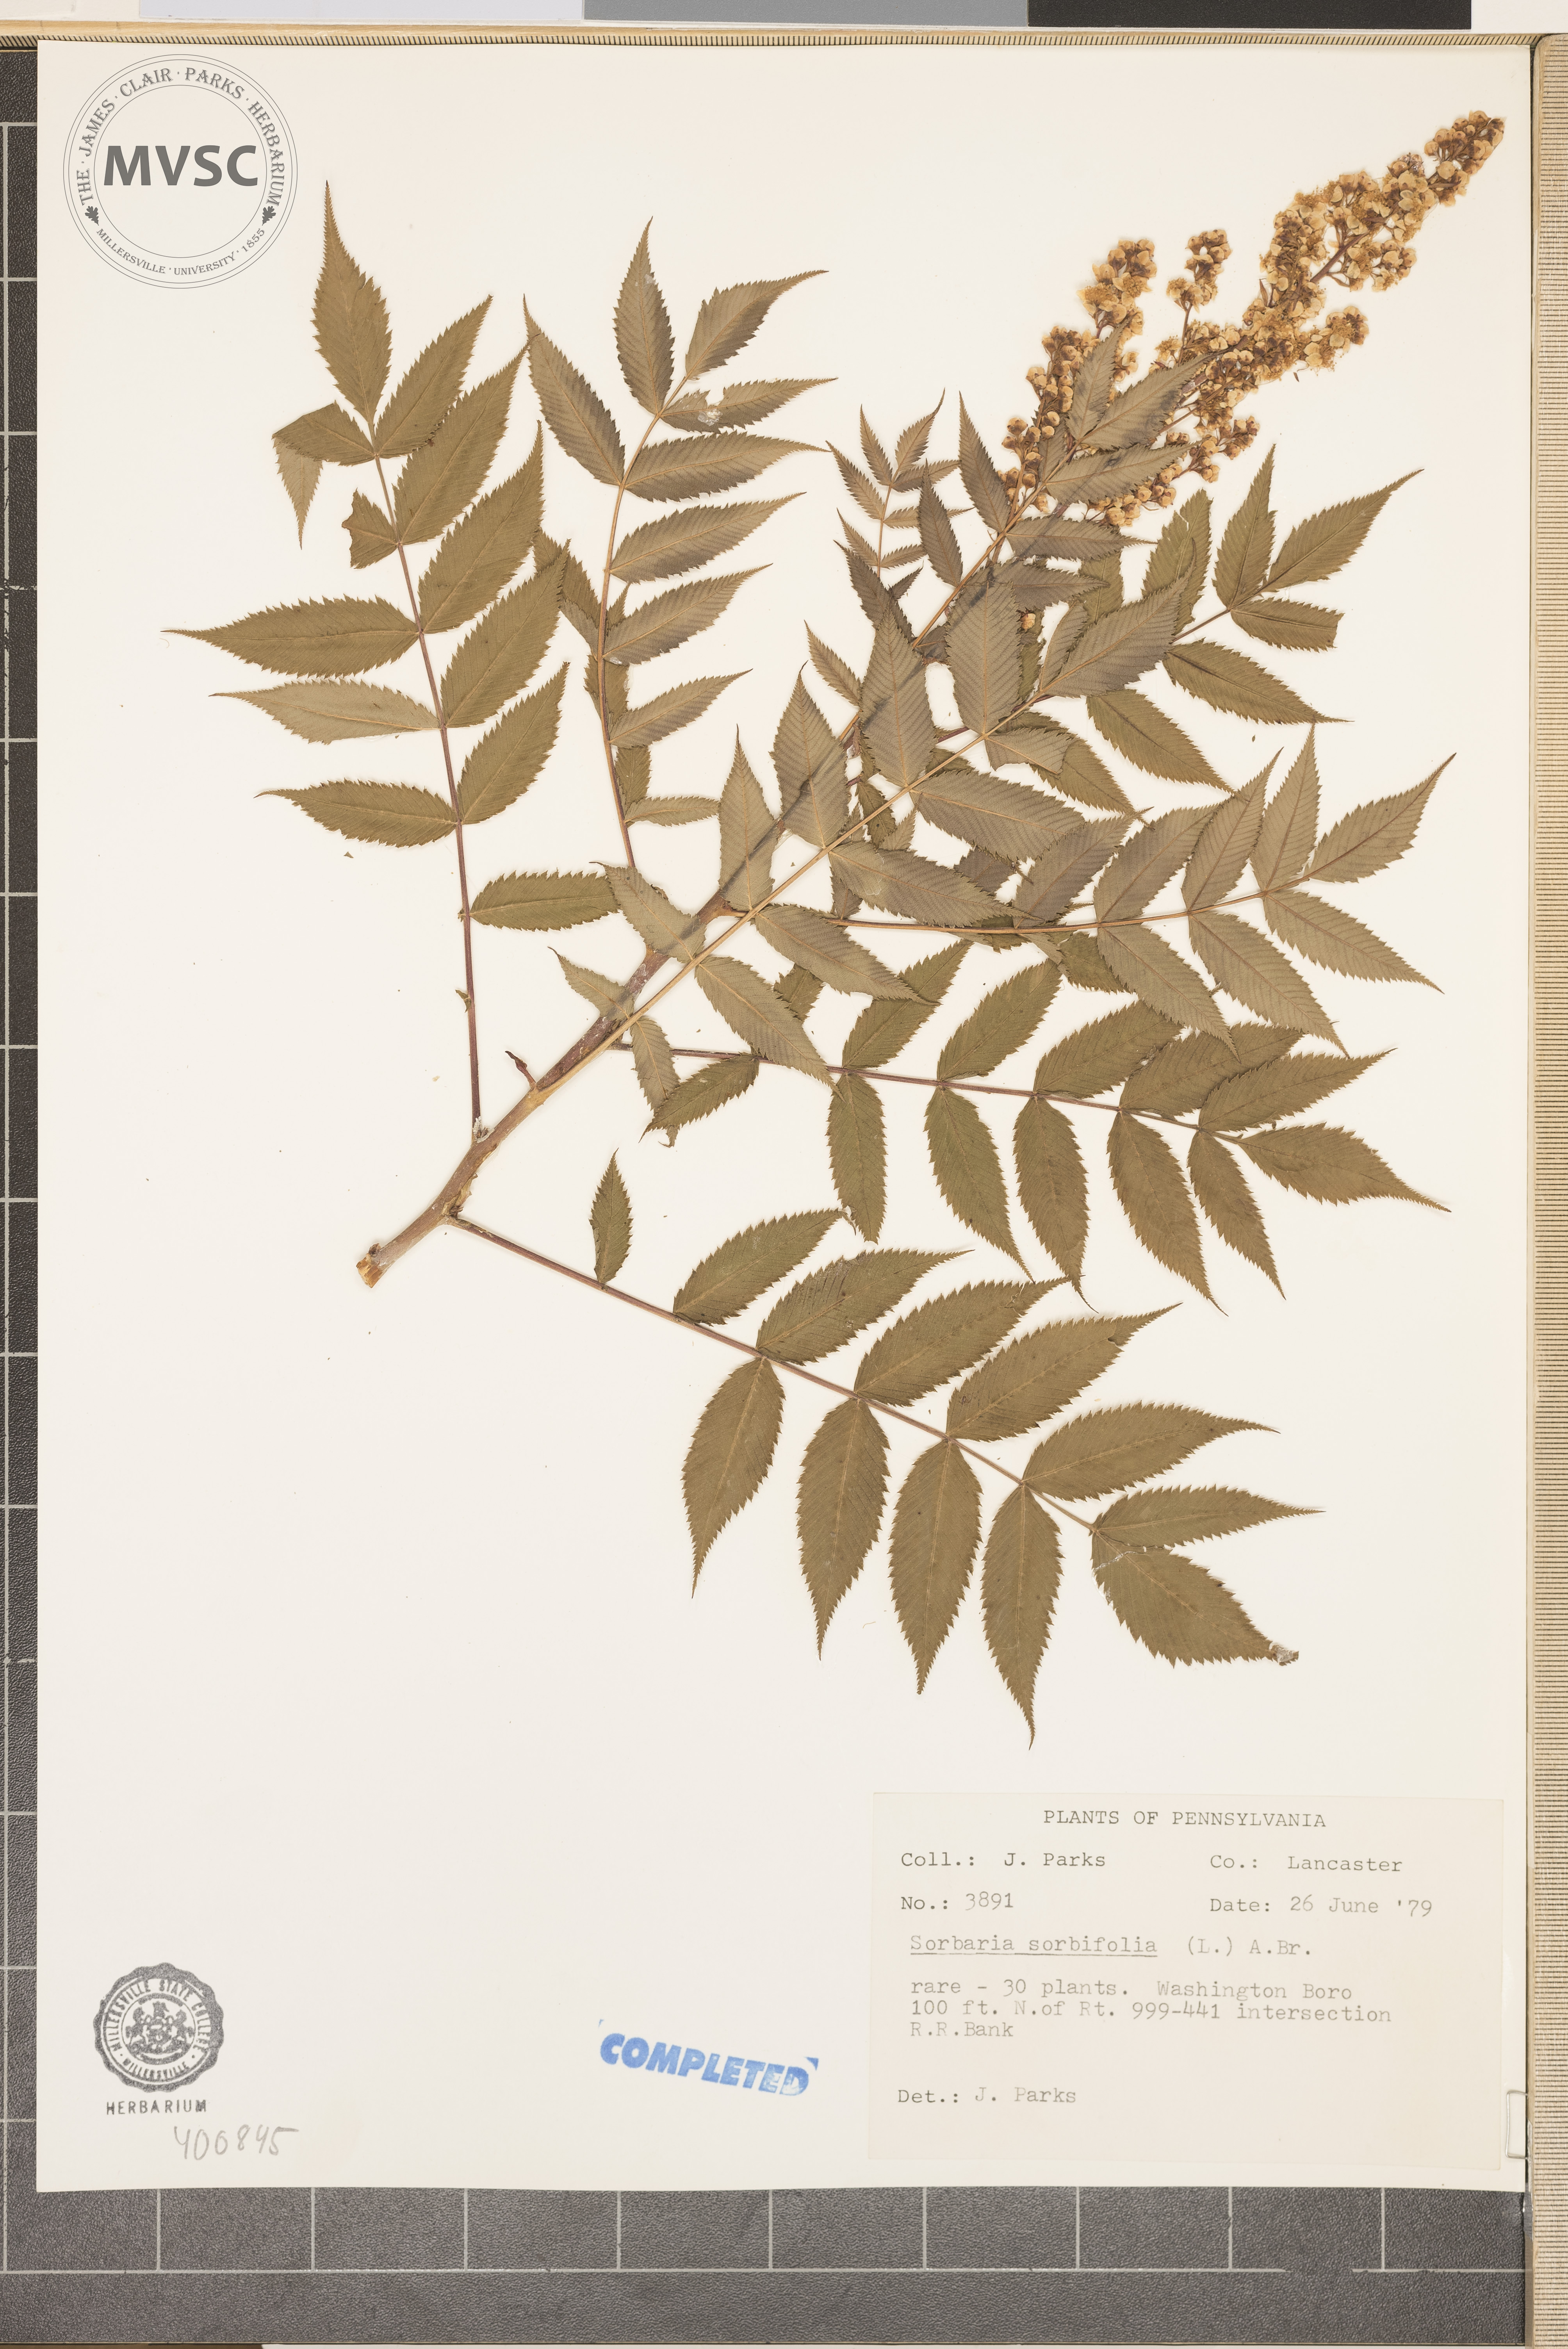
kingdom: Plantae
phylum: Tracheophyta
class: Magnoliopsida
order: Rosales
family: Rosaceae
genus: Sorbaria
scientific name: Sorbaria sorbifolia
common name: False spiraea
